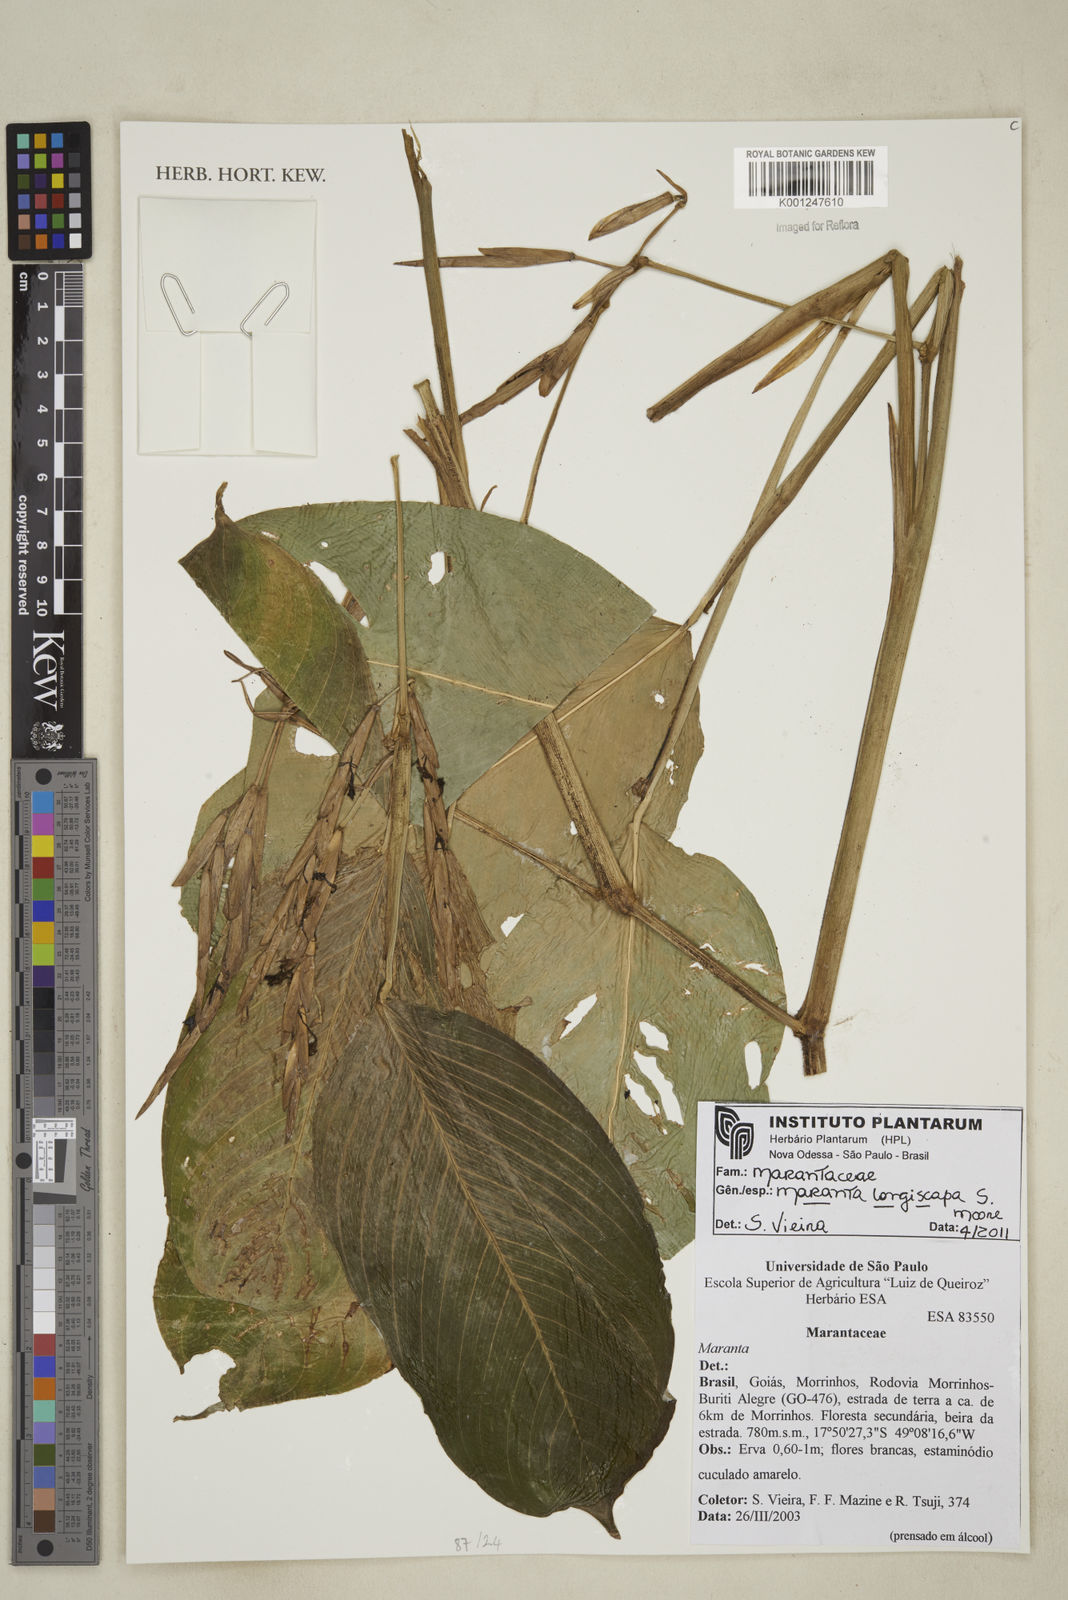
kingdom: Plantae
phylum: Tracheophyta
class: Liliopsida
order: Zingiberales
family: Marantaceae
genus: Maranta
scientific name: Maranta phrynioides
